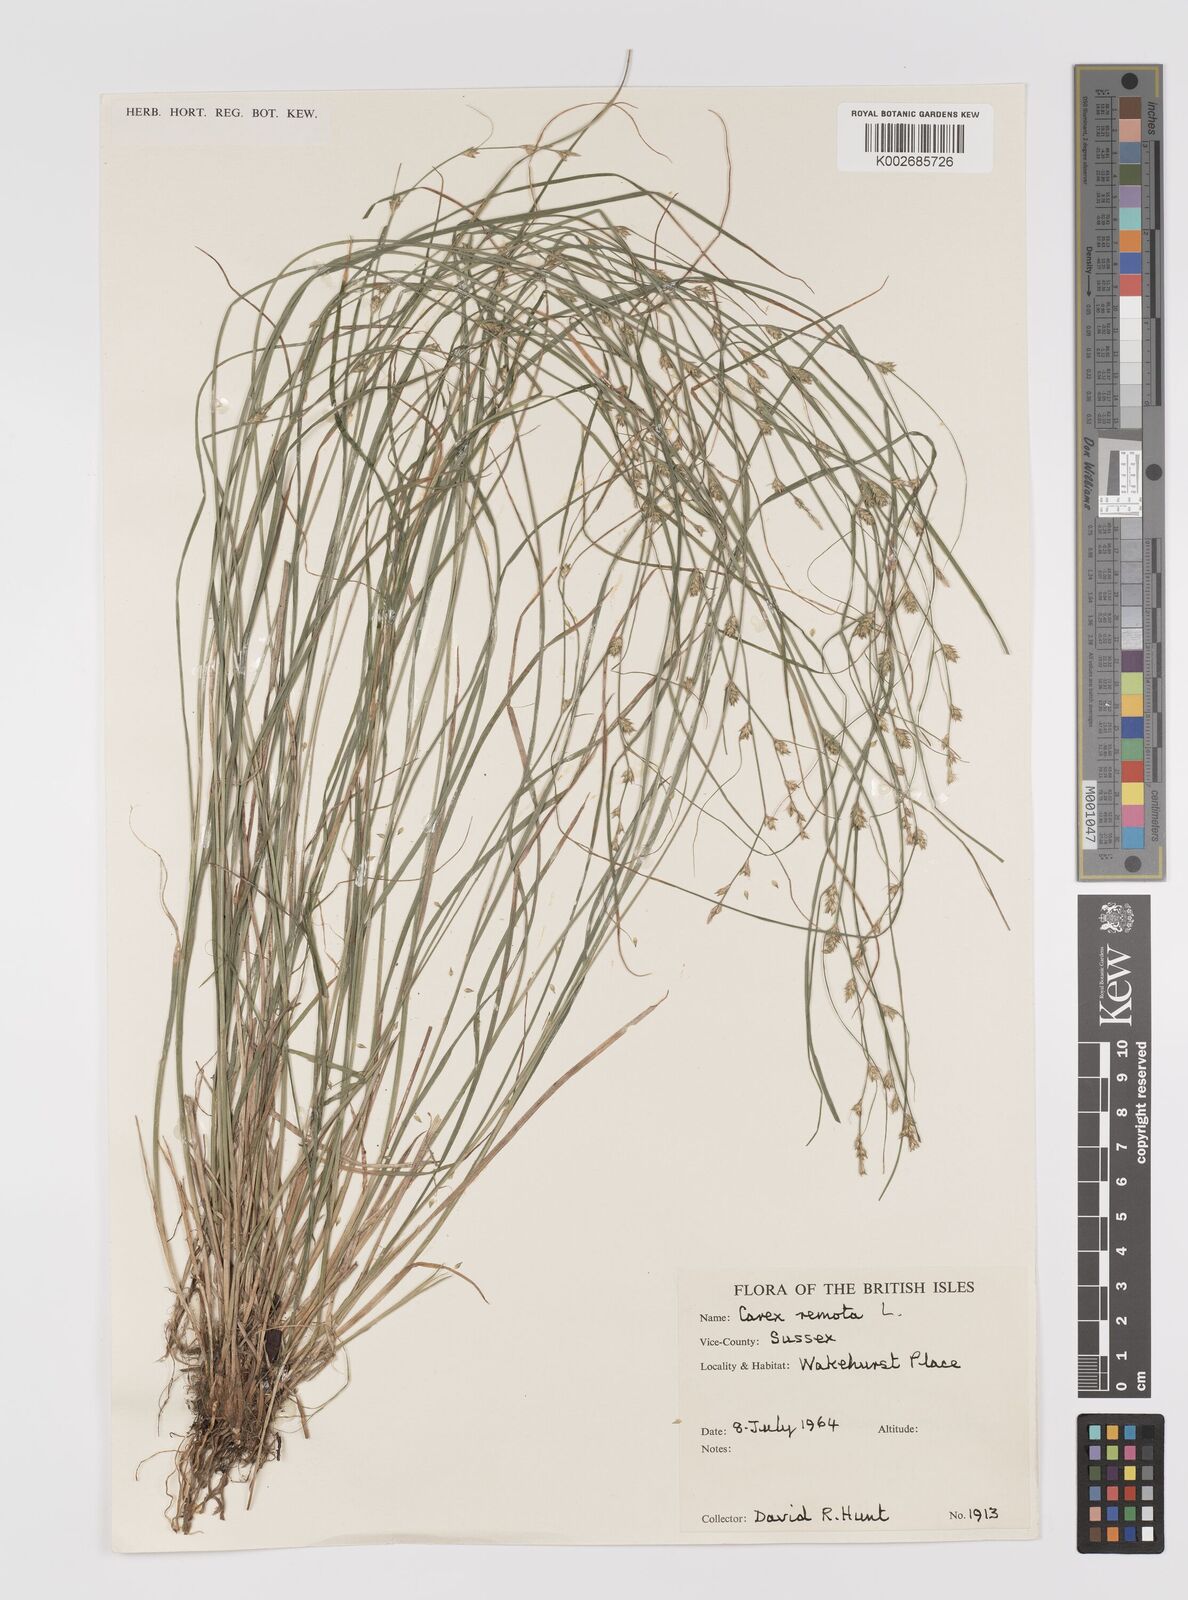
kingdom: Plantae
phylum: Tracheophyta
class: Liliopsida
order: Poales
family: Cyperaceae
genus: Carex
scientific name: Carex remota
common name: Remote sedge
